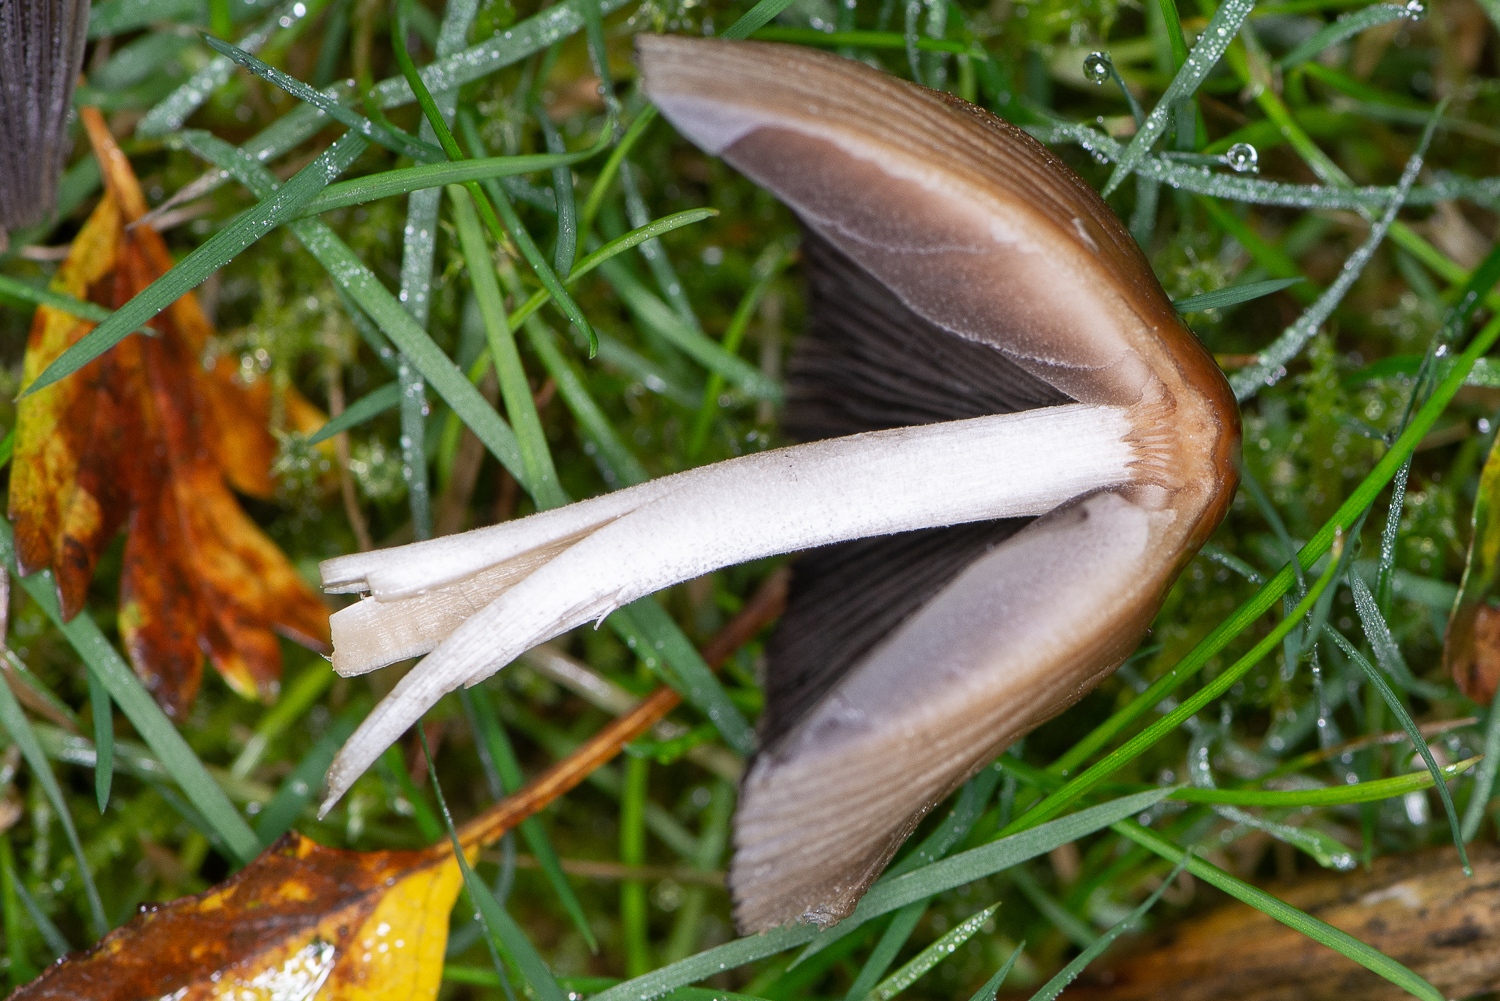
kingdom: Fungi
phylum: Basidiomycota
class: Agaricomycetes
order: Agaricales
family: Psathyrellaceae
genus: Coprinellus
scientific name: Coprinellus micaceus
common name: glimmer-blækhat
